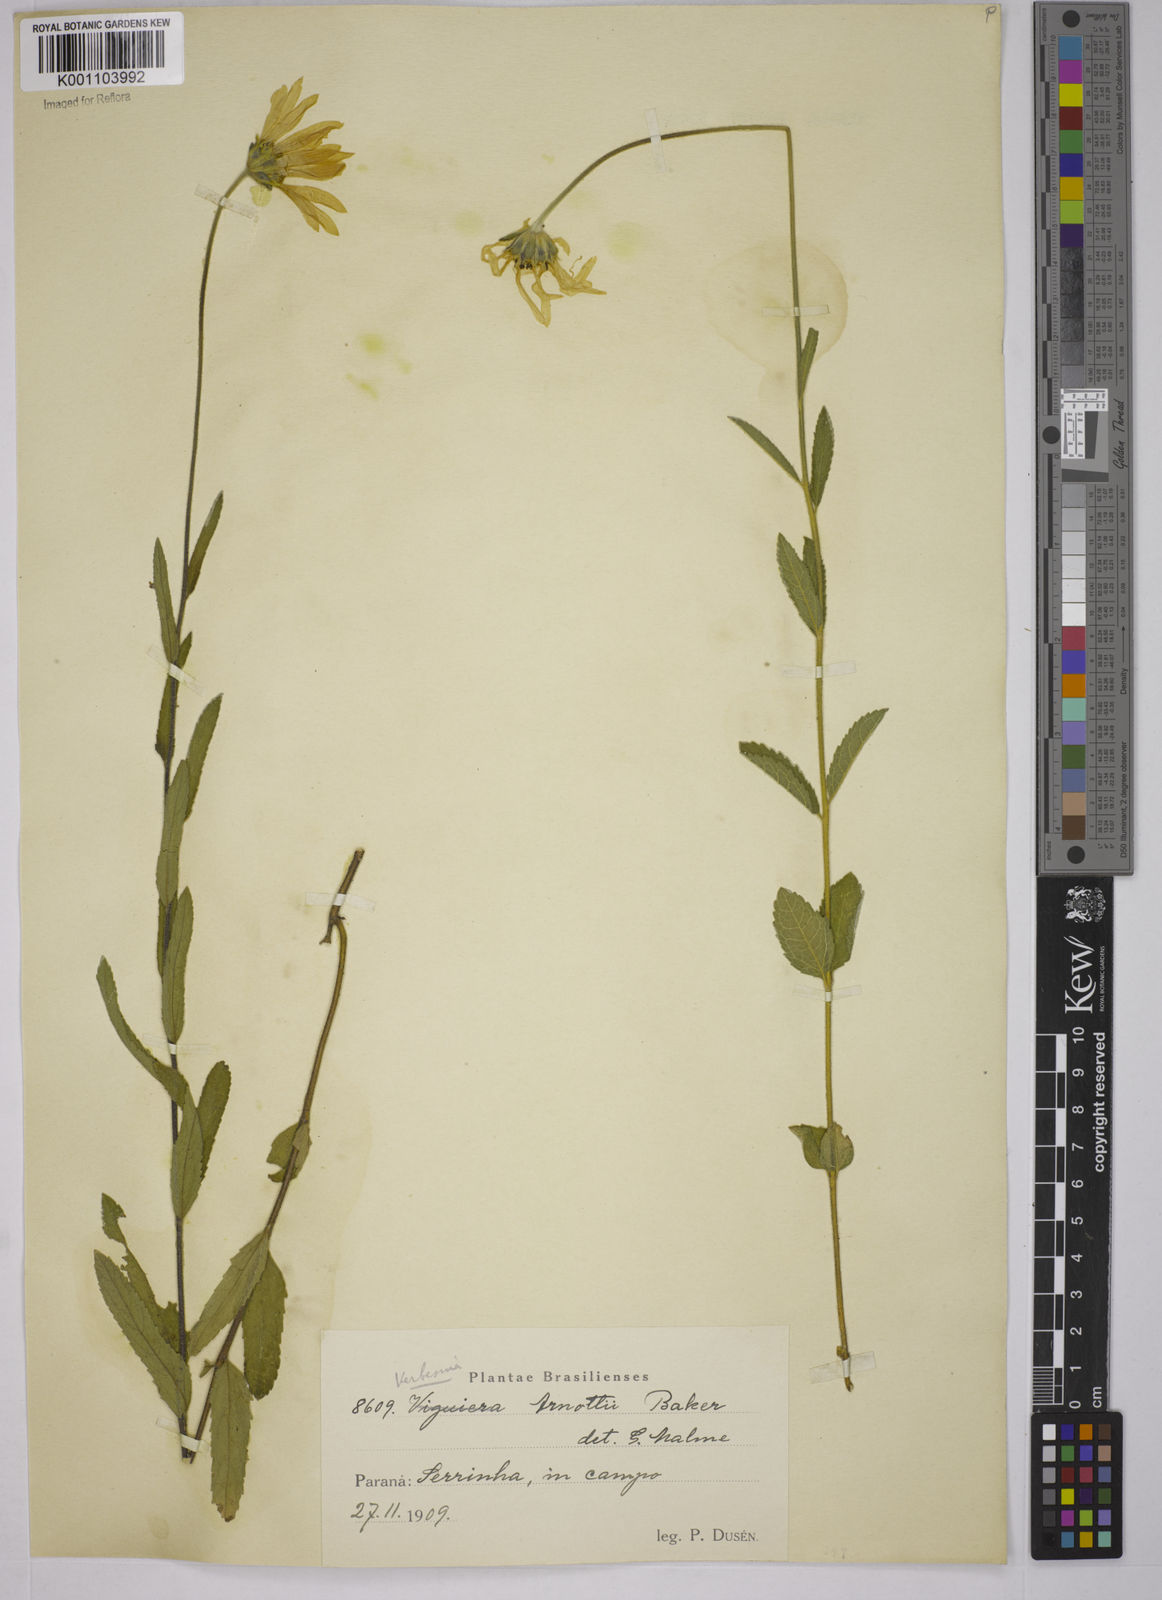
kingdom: Plantae
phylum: Tracheophyta
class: Magnoliopsida
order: Asterales
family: Asteraceae
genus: Dimerostemma
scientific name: Dimerostemma arnottii
